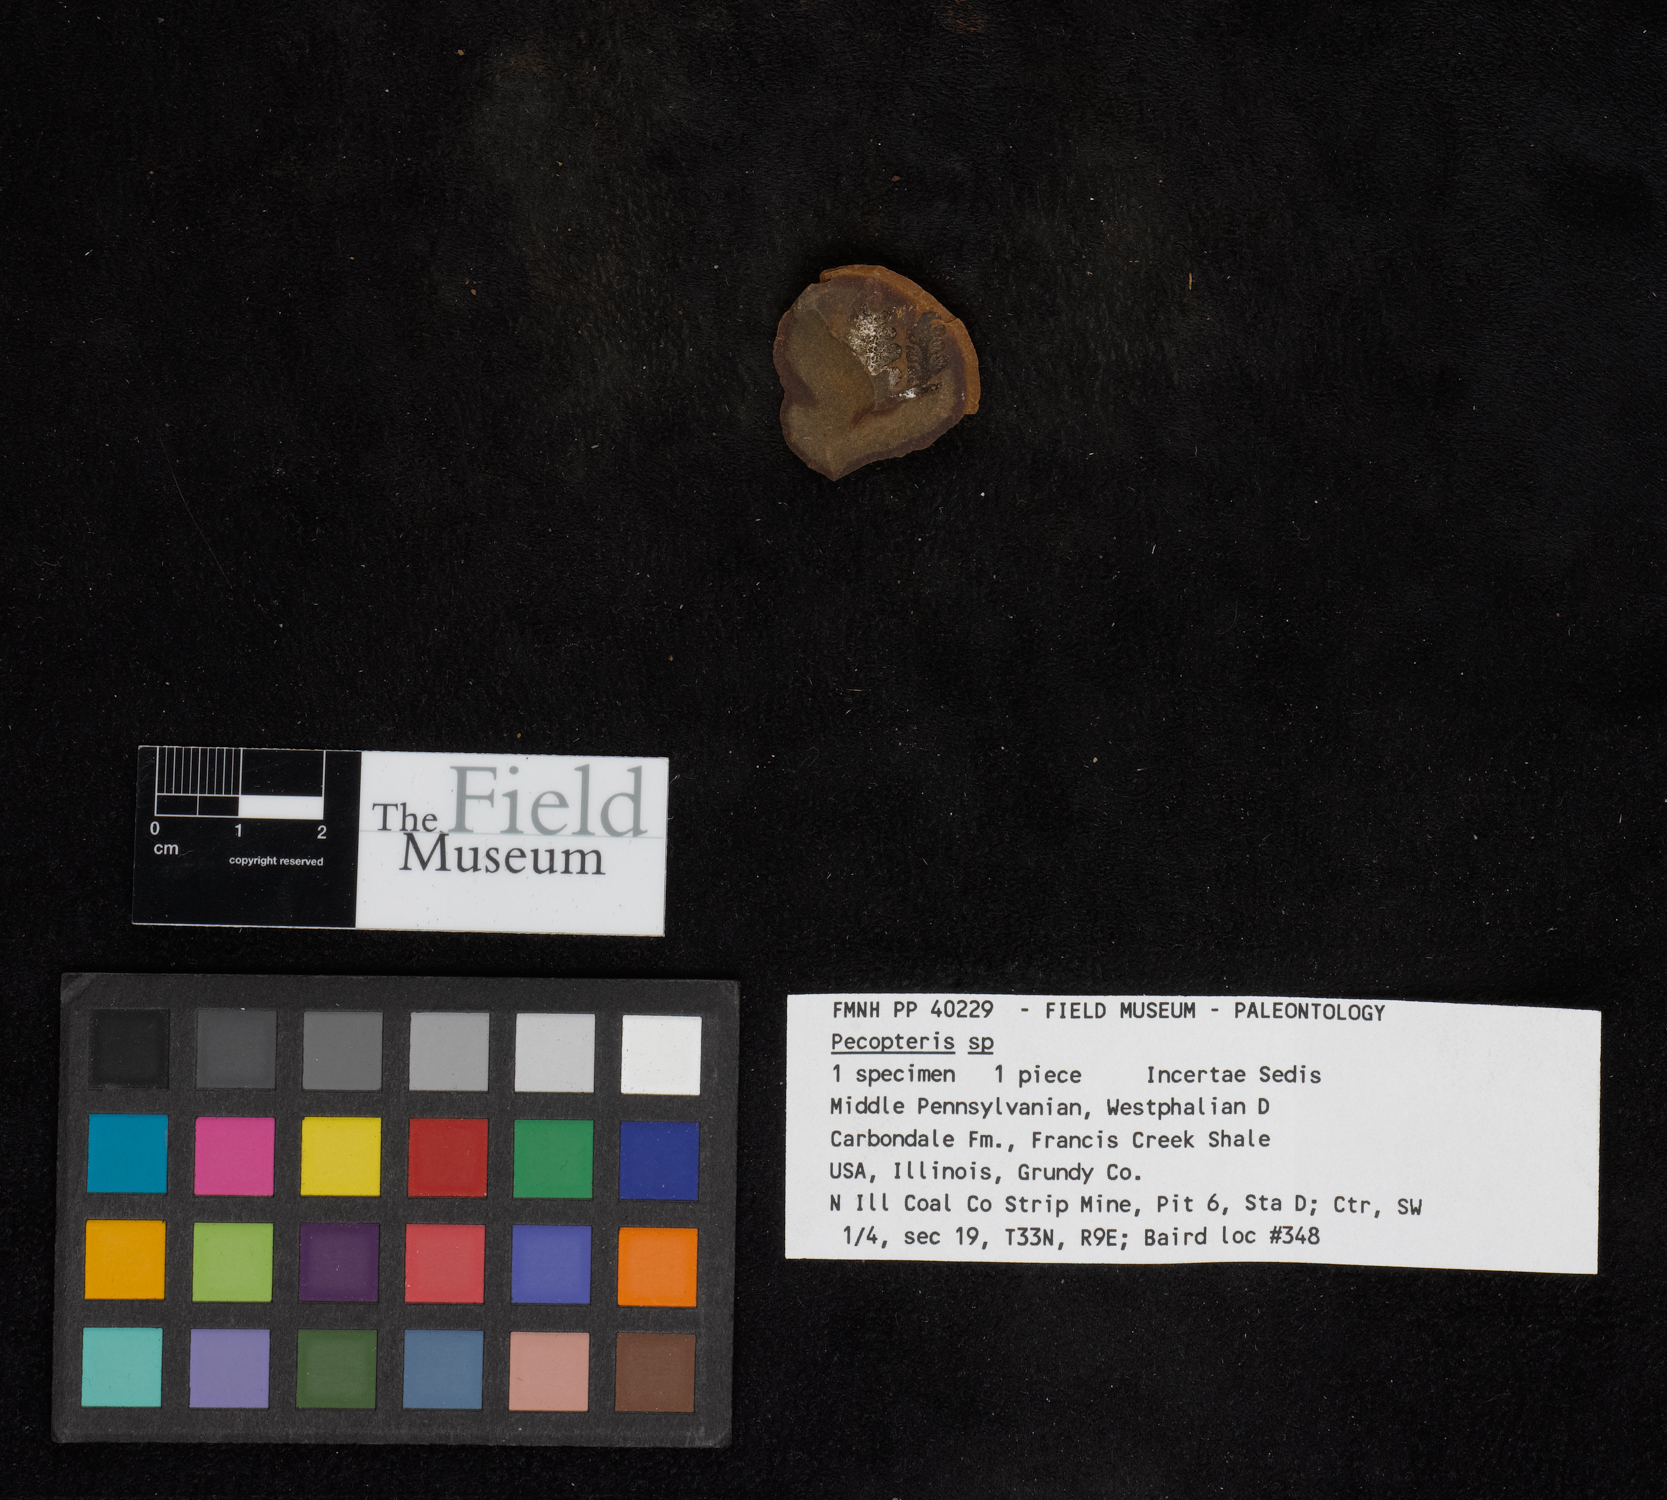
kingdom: Plantae
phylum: Tracheophyta
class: Polypodiopsida
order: Marattiales
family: Asterothecaceae
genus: Pecopteris
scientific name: Pecopteris
